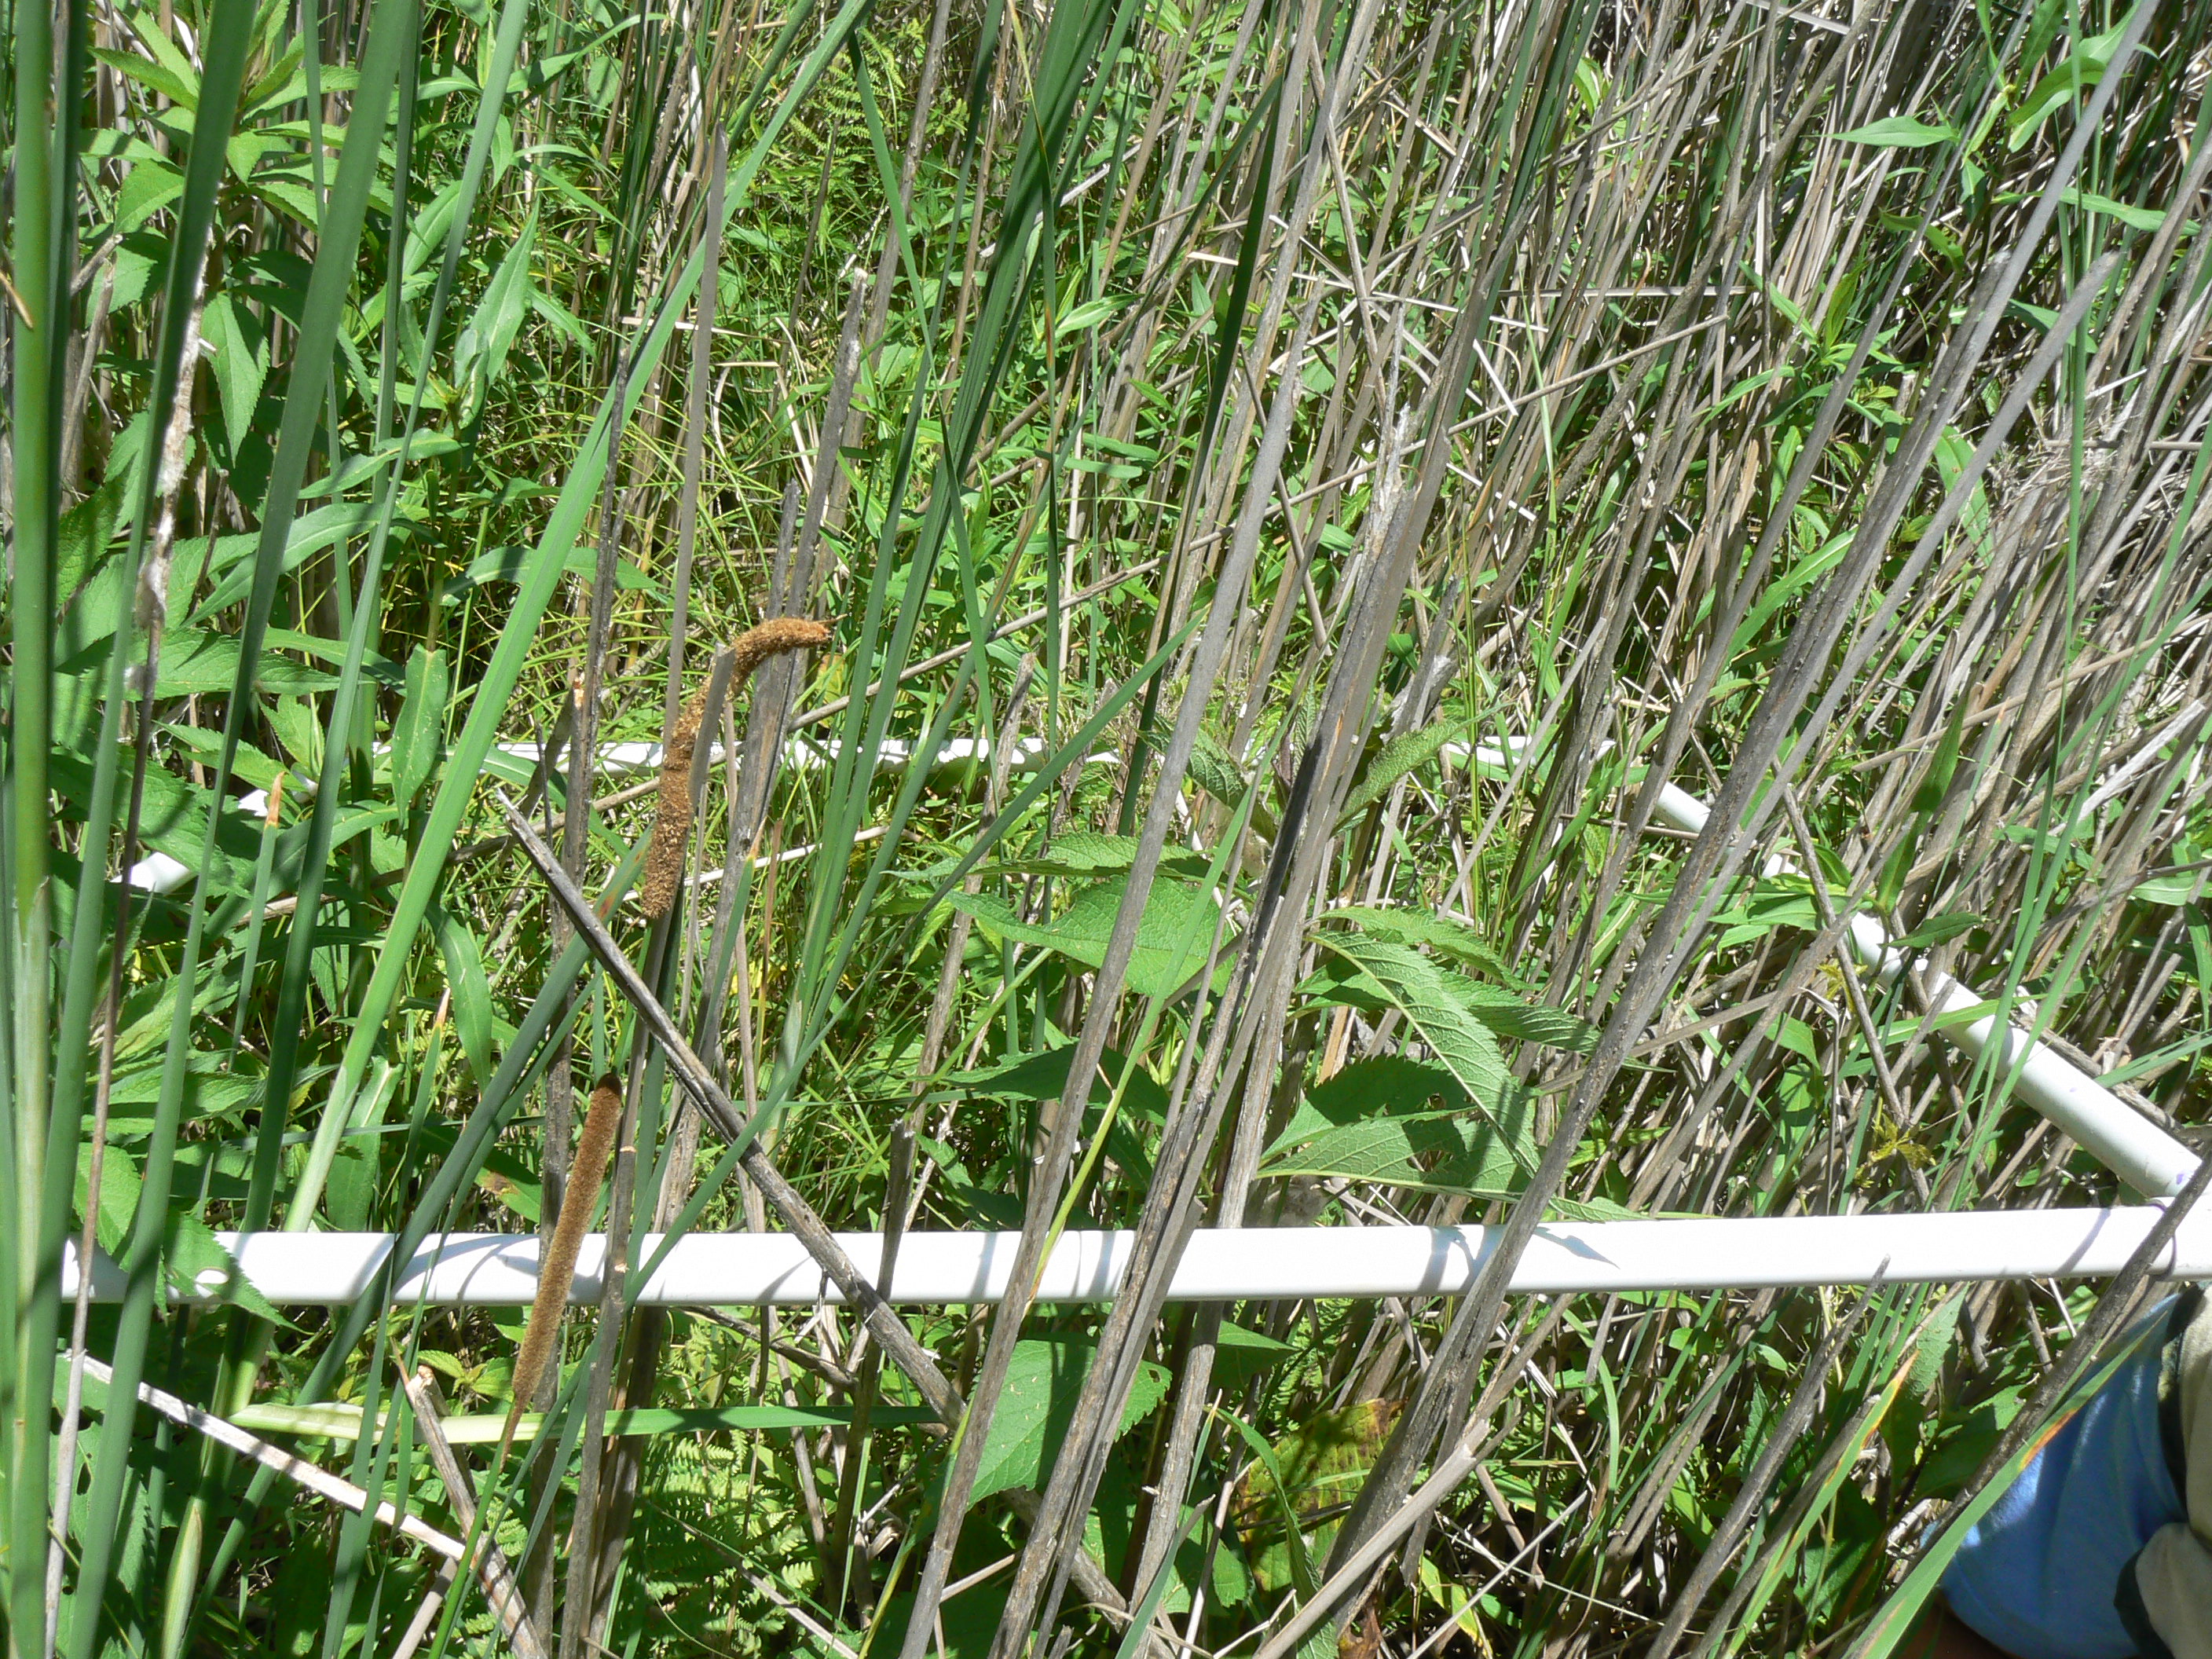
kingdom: Plantae
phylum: Tracheophyta
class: Magnoliopsida
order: Vitales
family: Vitaceae
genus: Parthenocissus
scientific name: Parthenocissus quinquefolia
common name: Virginia-creeper
